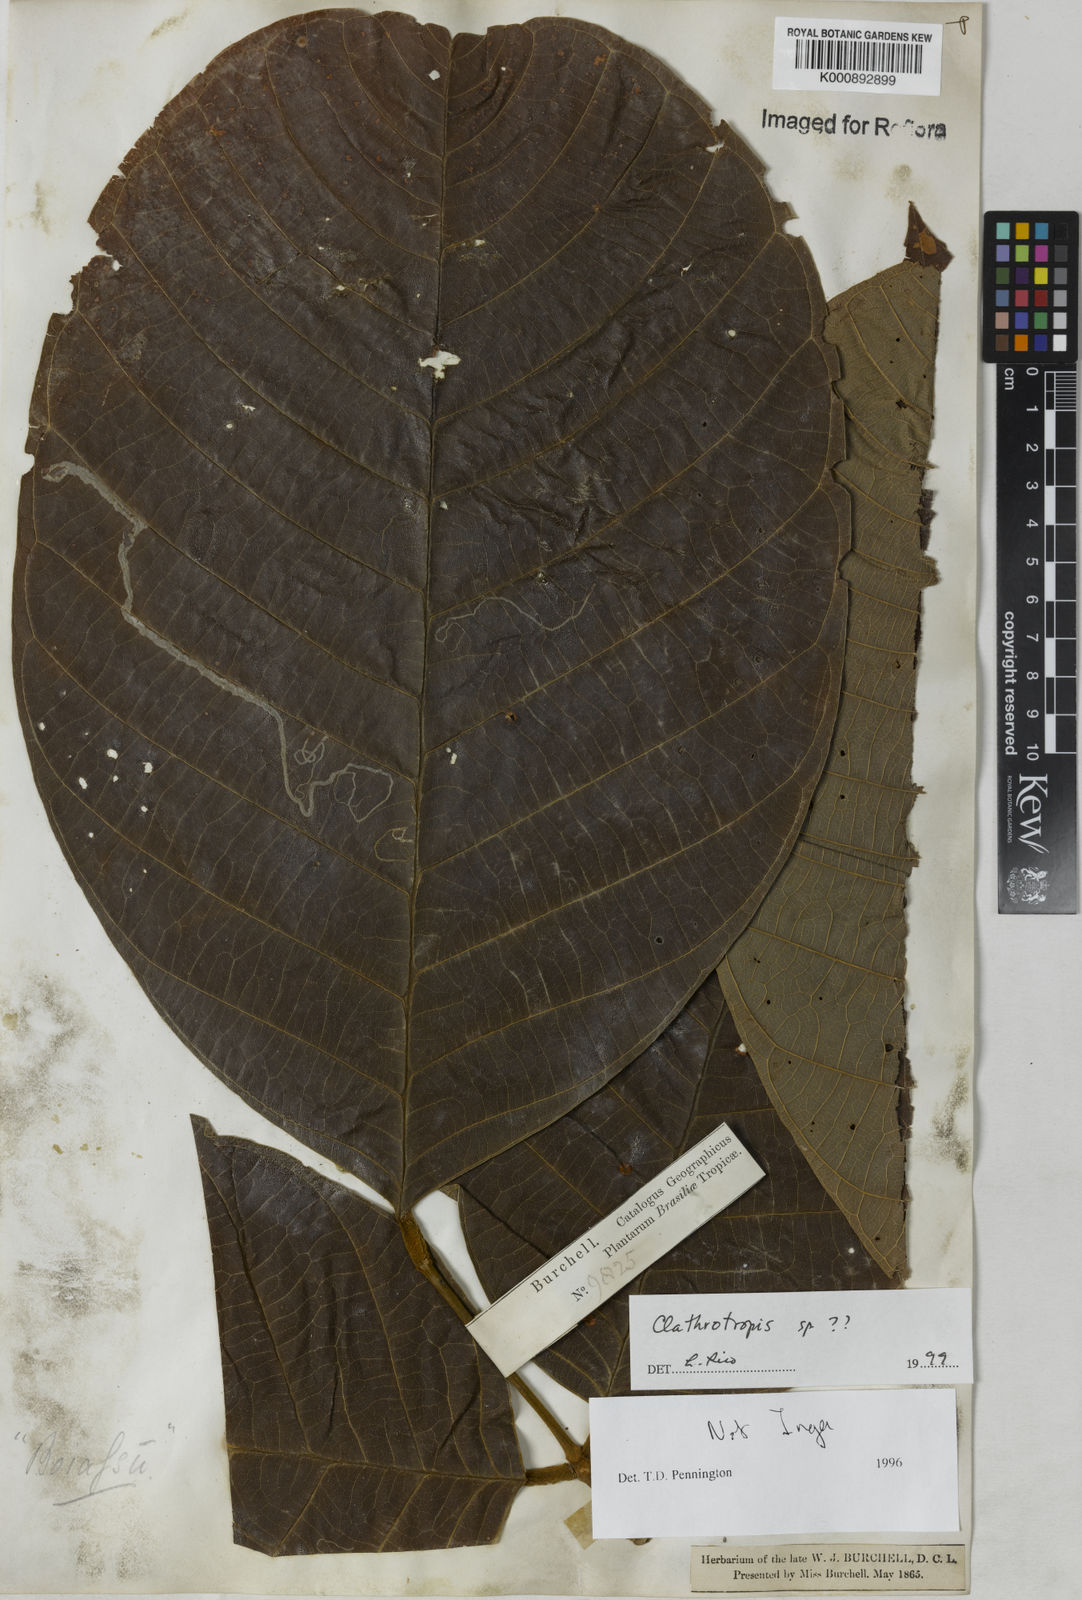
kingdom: Plantae
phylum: Tracheophyta
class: Magnoliopsida
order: Fabales
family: Fabaceae
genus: Clathrotropis
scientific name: Clathrotropis
